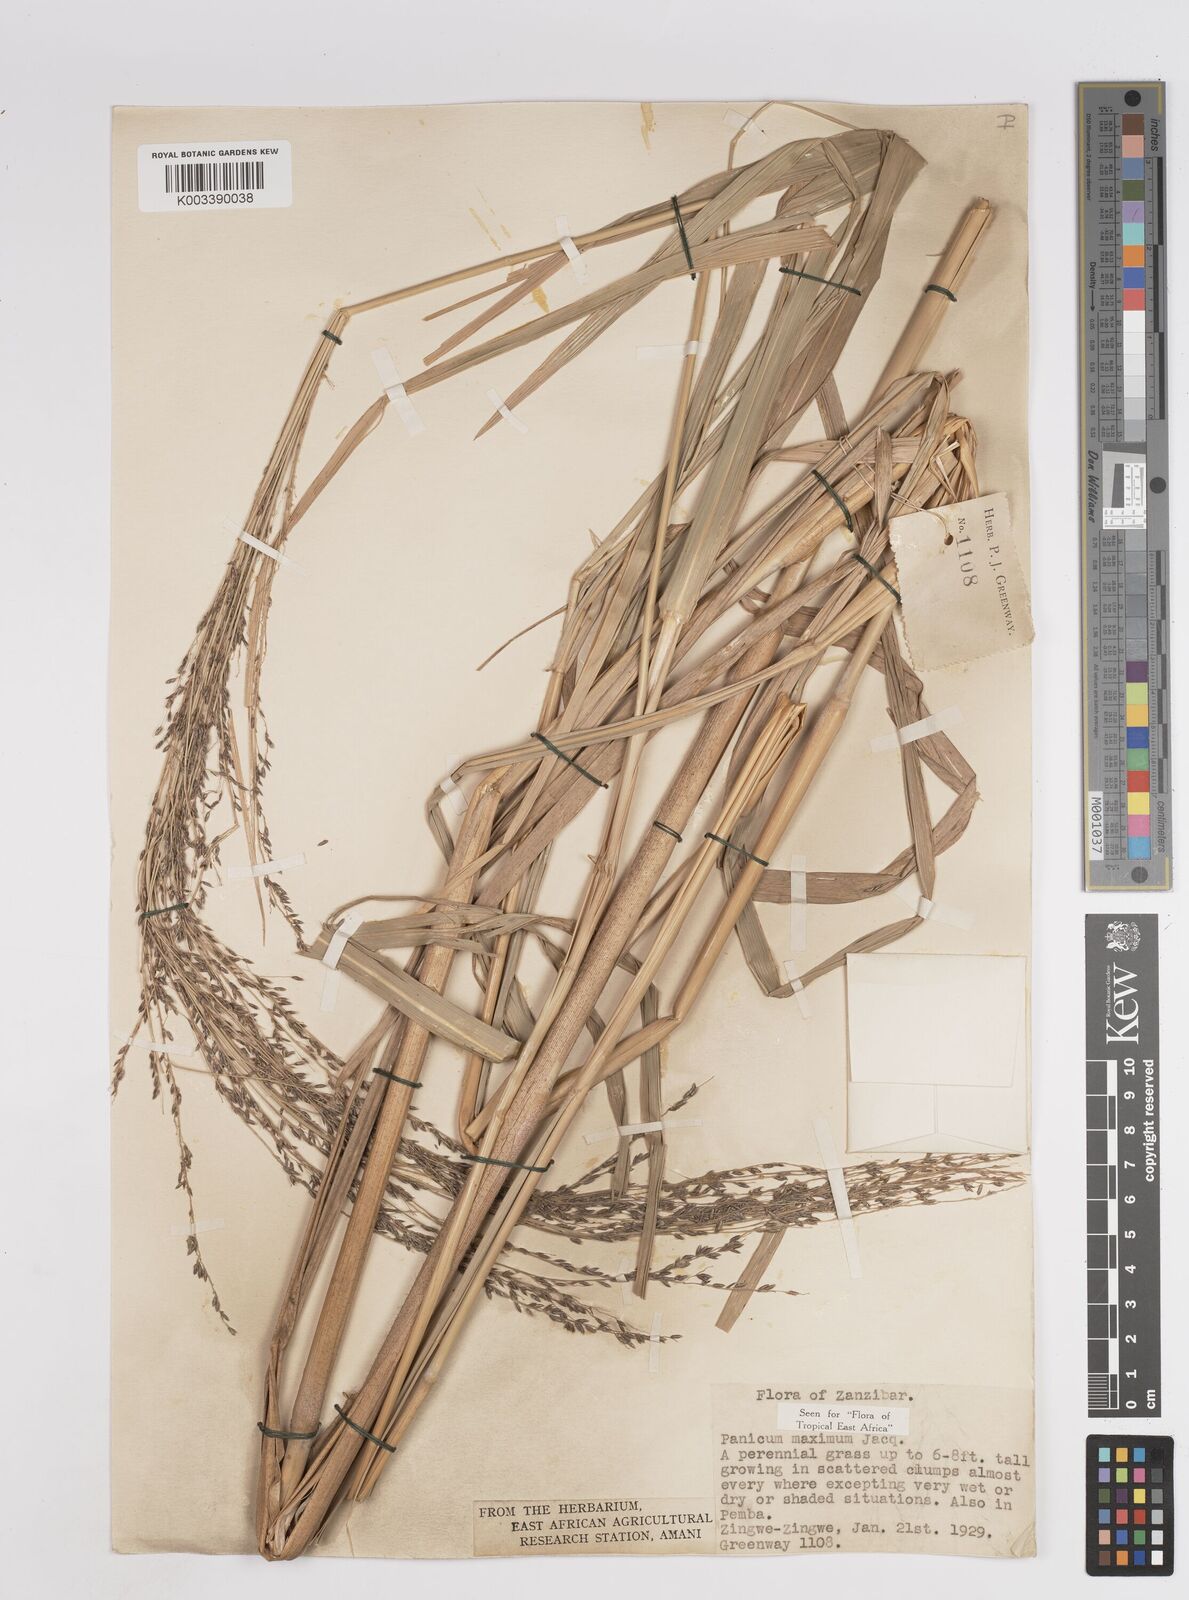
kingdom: Plantae
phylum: Tracheophyta
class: Liliopsida
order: Poales
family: Poaceae
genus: Megathyrsus
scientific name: Megathyrsus maximus
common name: Guineagrass
